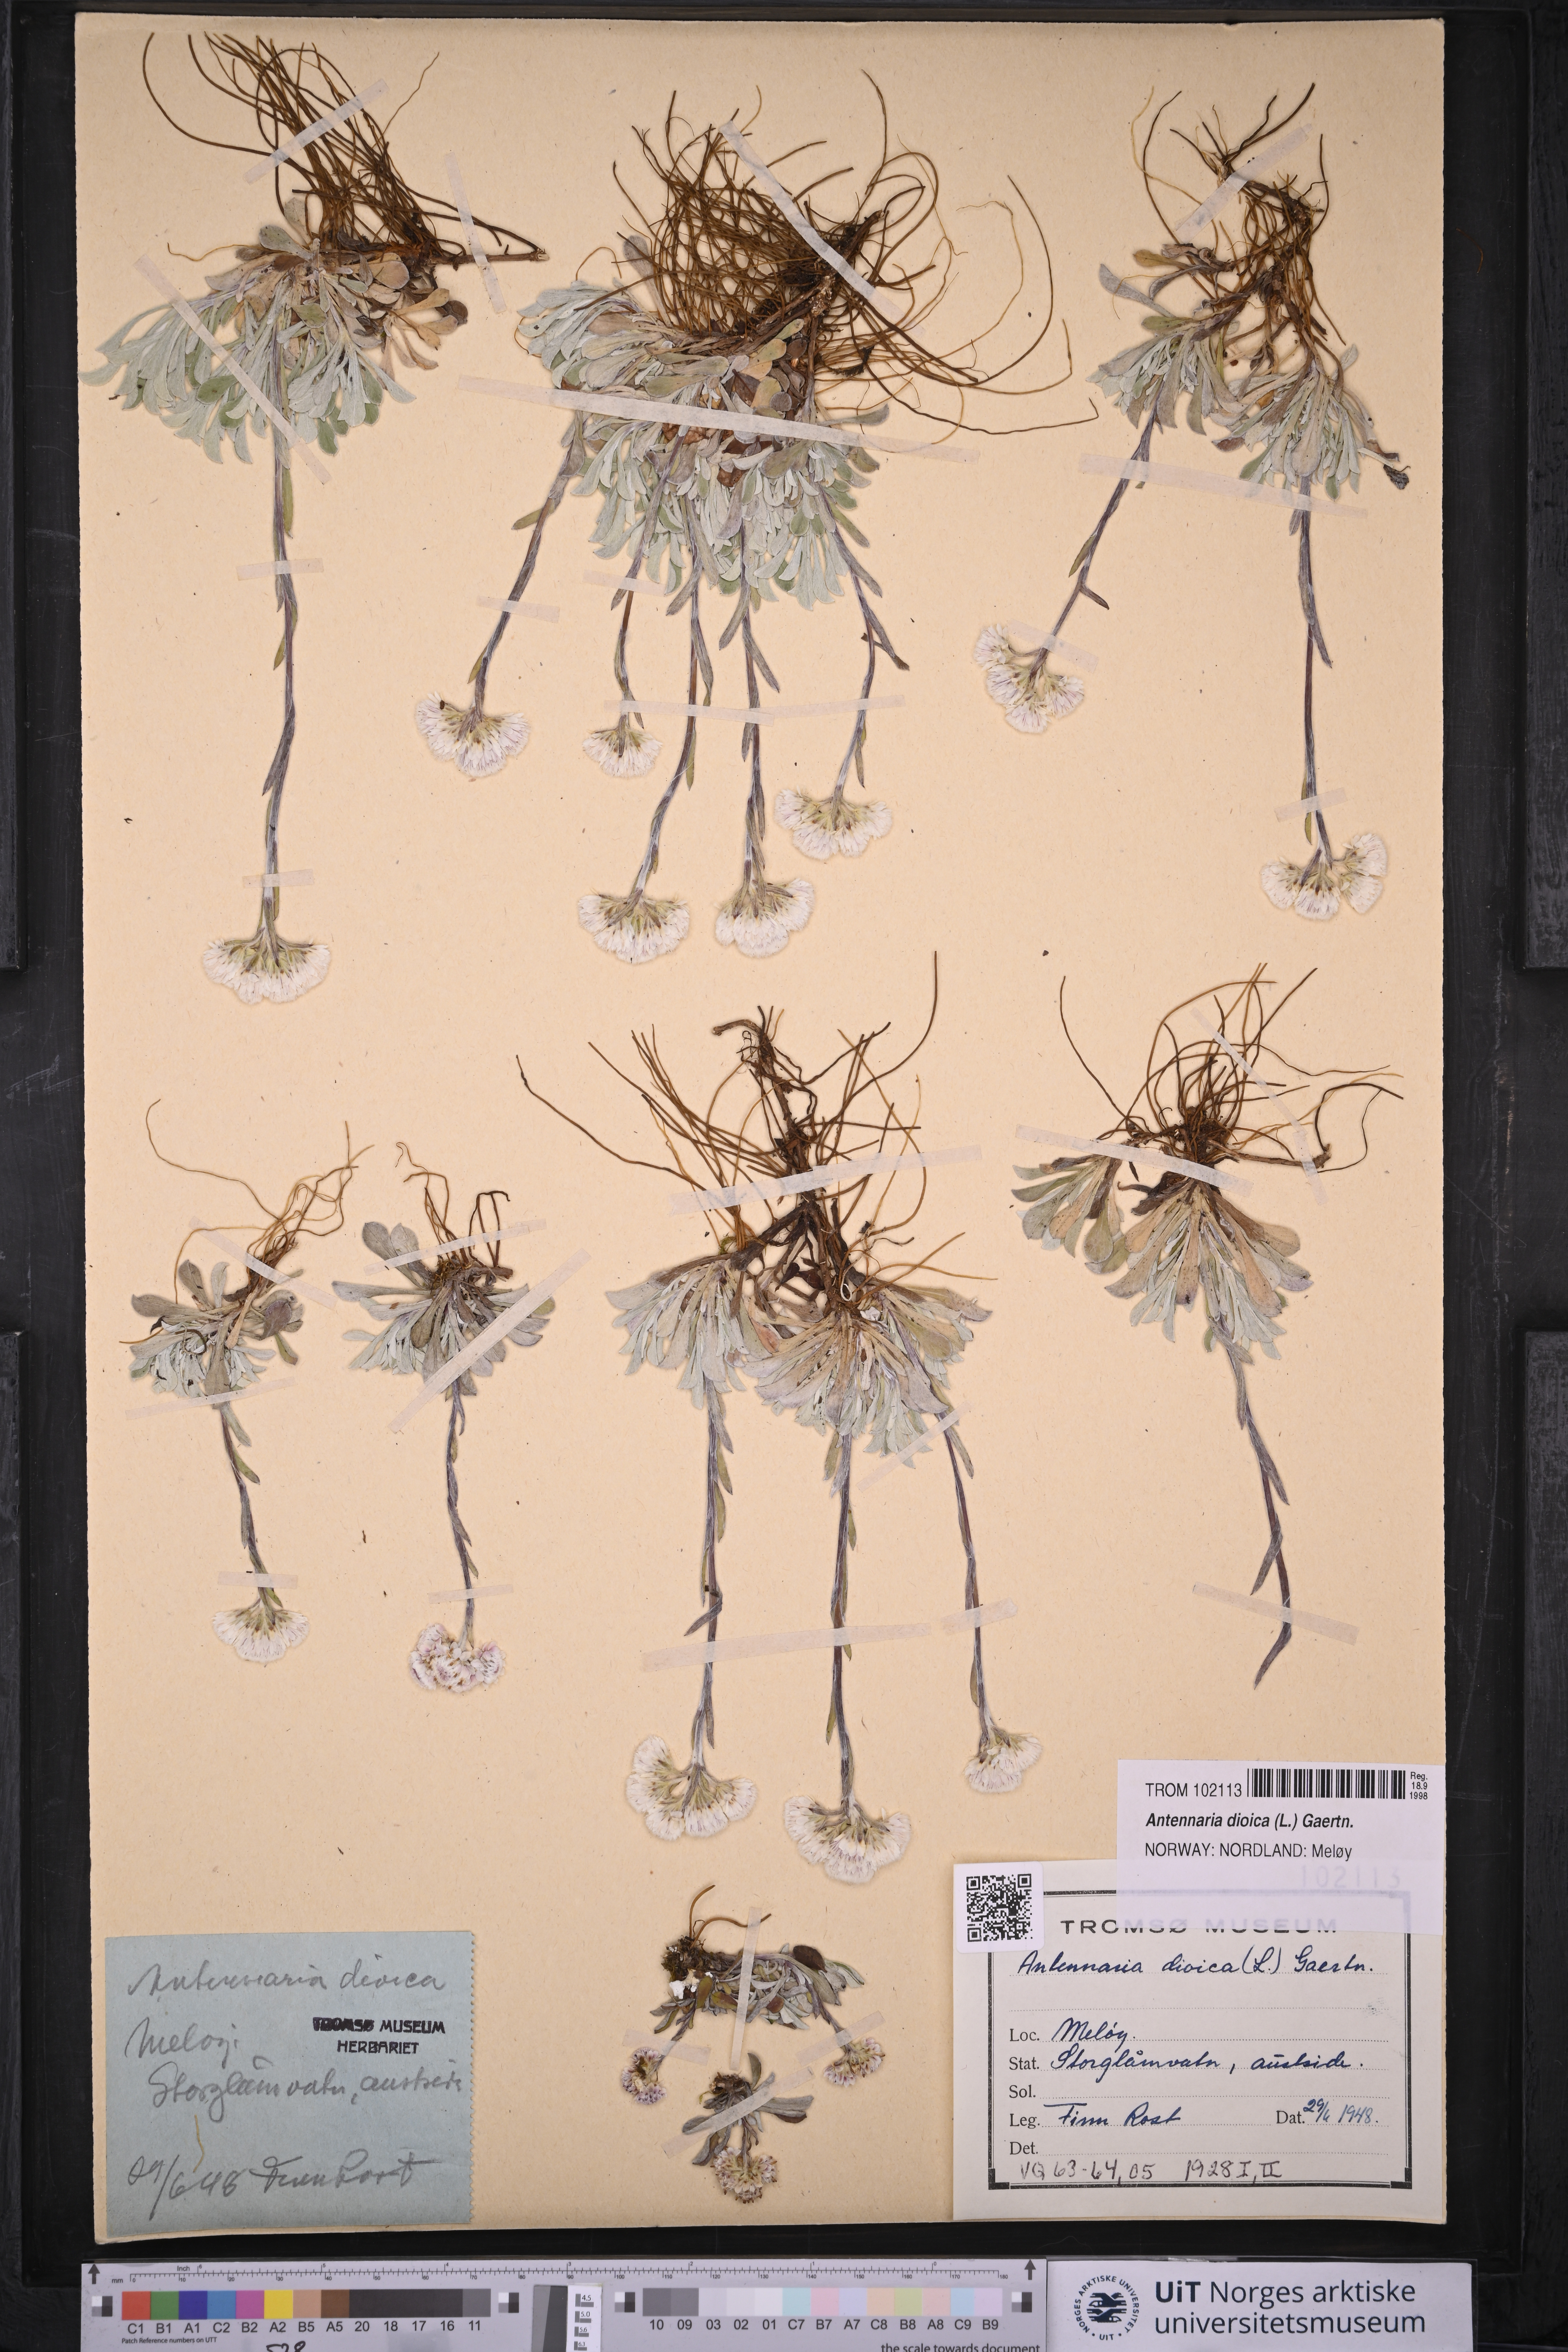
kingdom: Plantae
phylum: Tracheophyta
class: Magnoliopsida
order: Asterales
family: Asteraceae
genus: Antennaria
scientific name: Antennaria dioica
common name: Mountain everlasting
